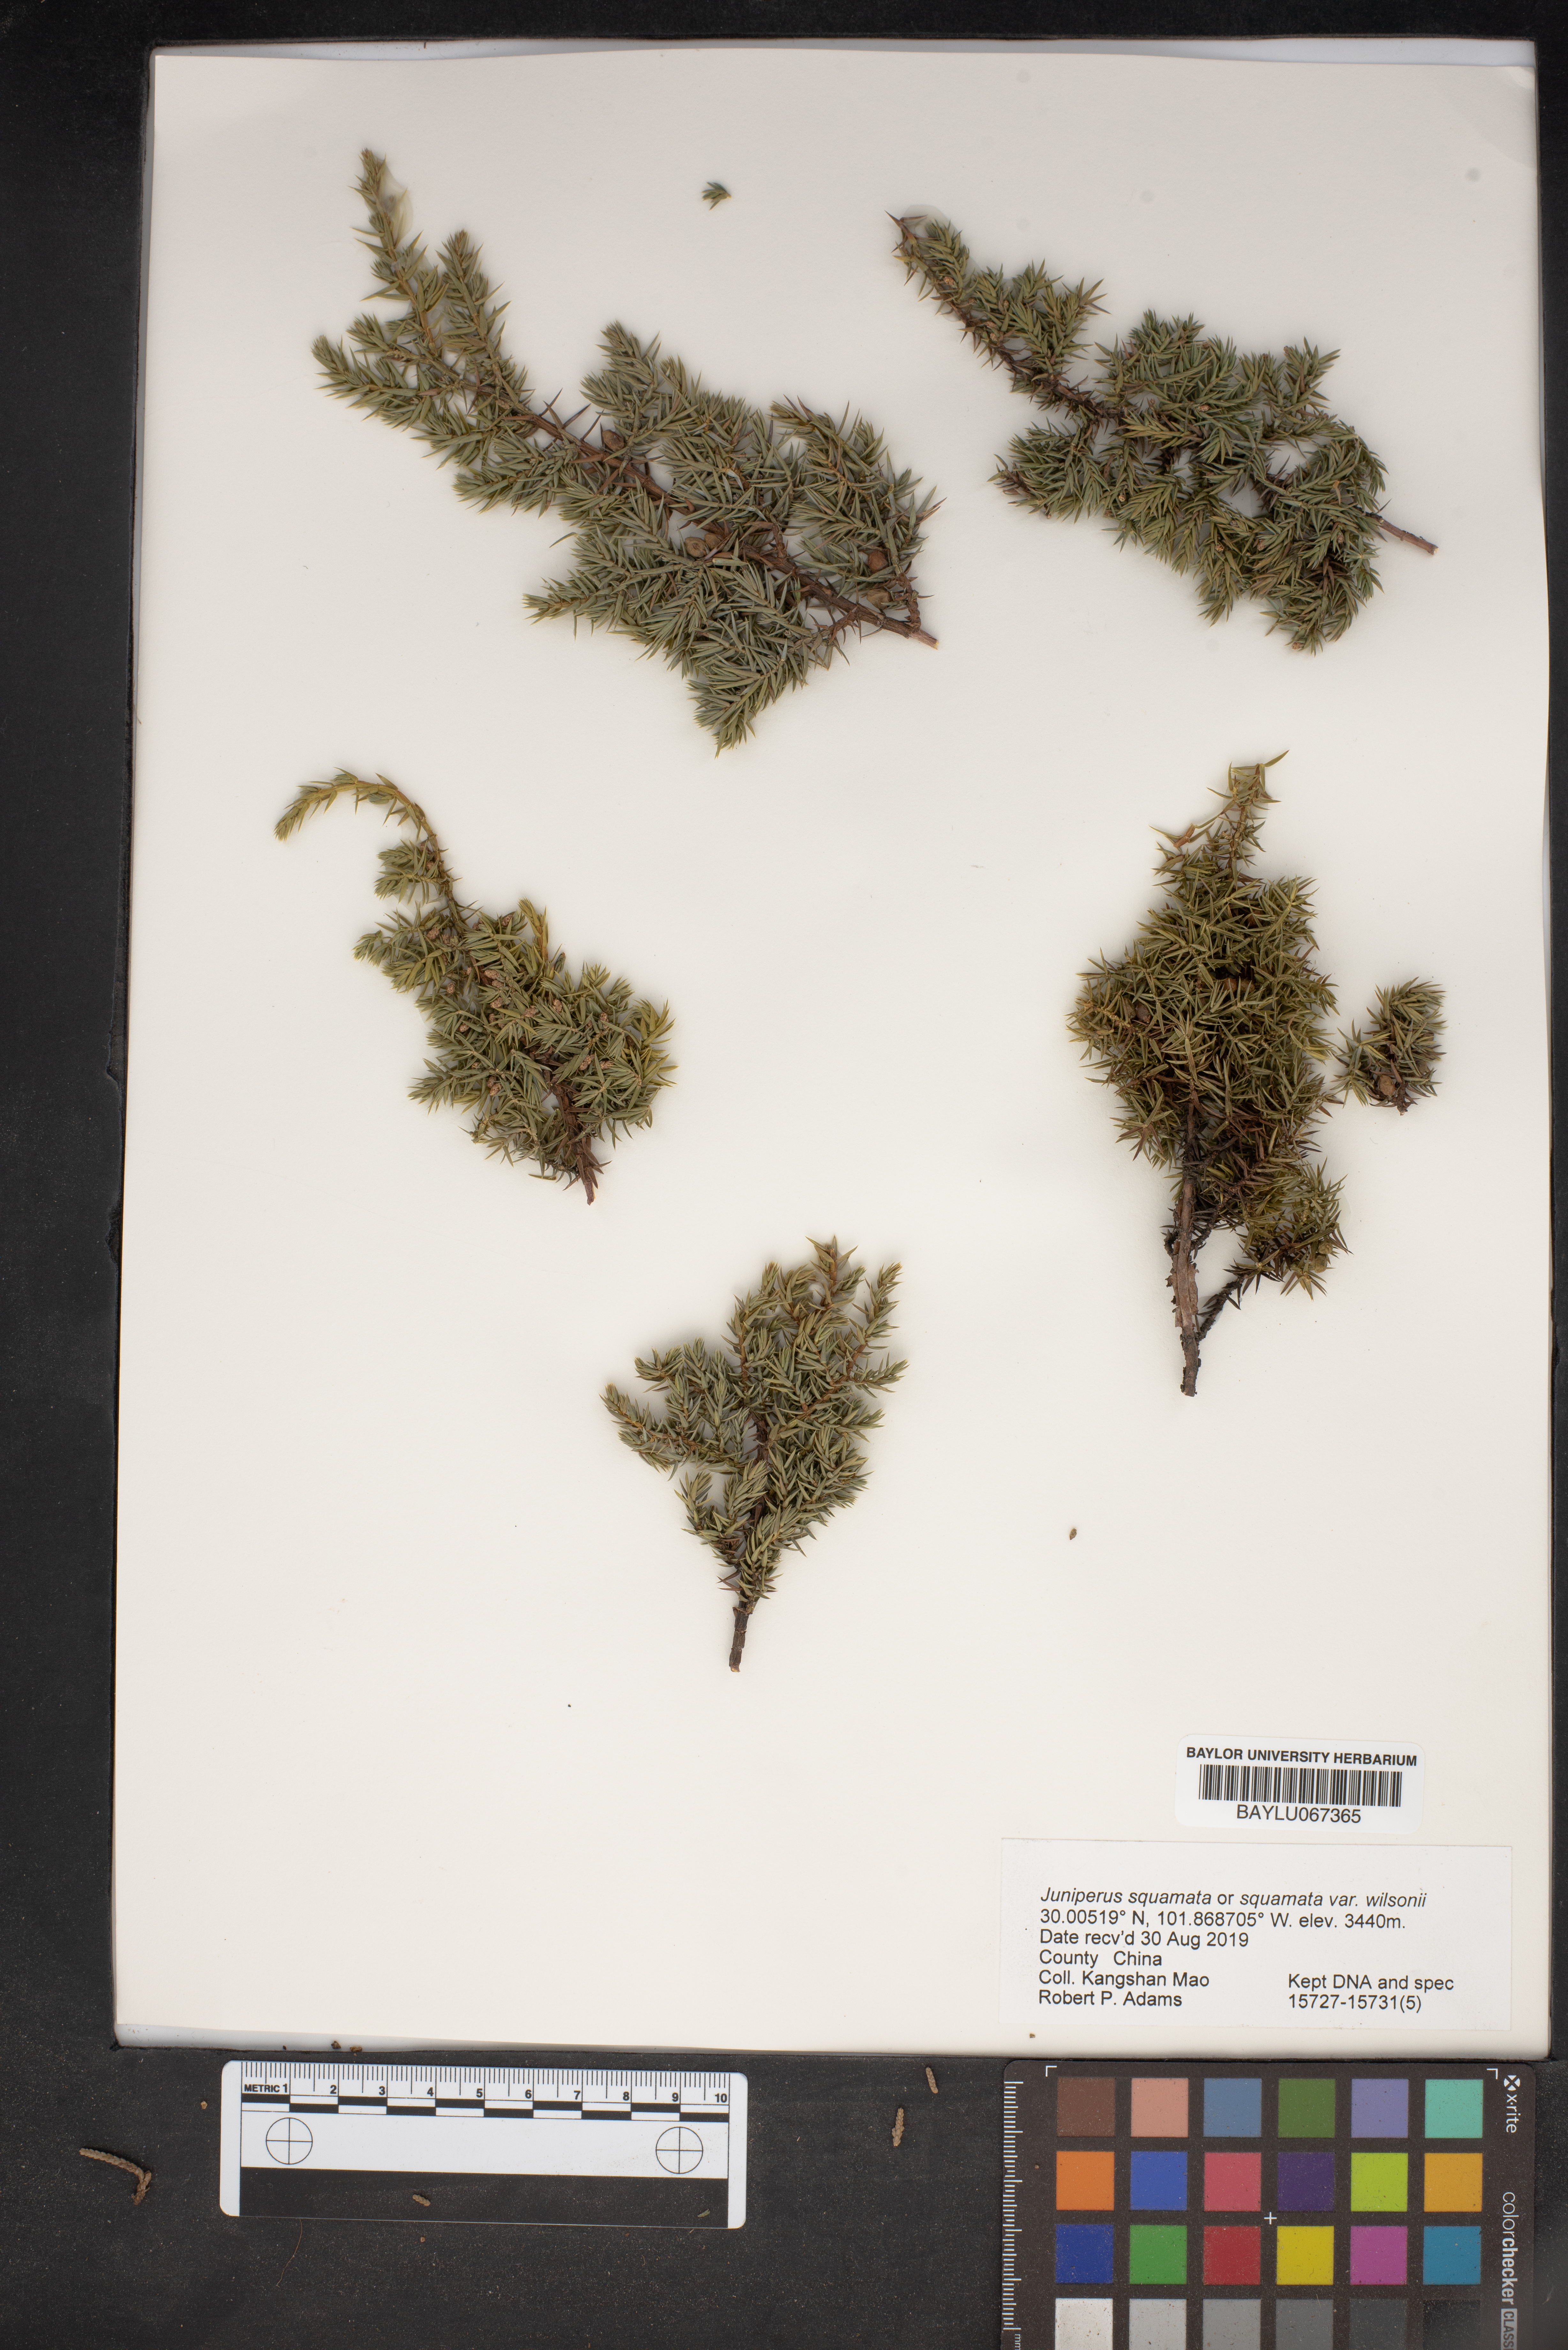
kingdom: Plantae
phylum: Tracheophyta
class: Pinopsida
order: Pinales
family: Cupressaceae
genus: Juniperus
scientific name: Juniperus pingii
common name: Ping's juniper
